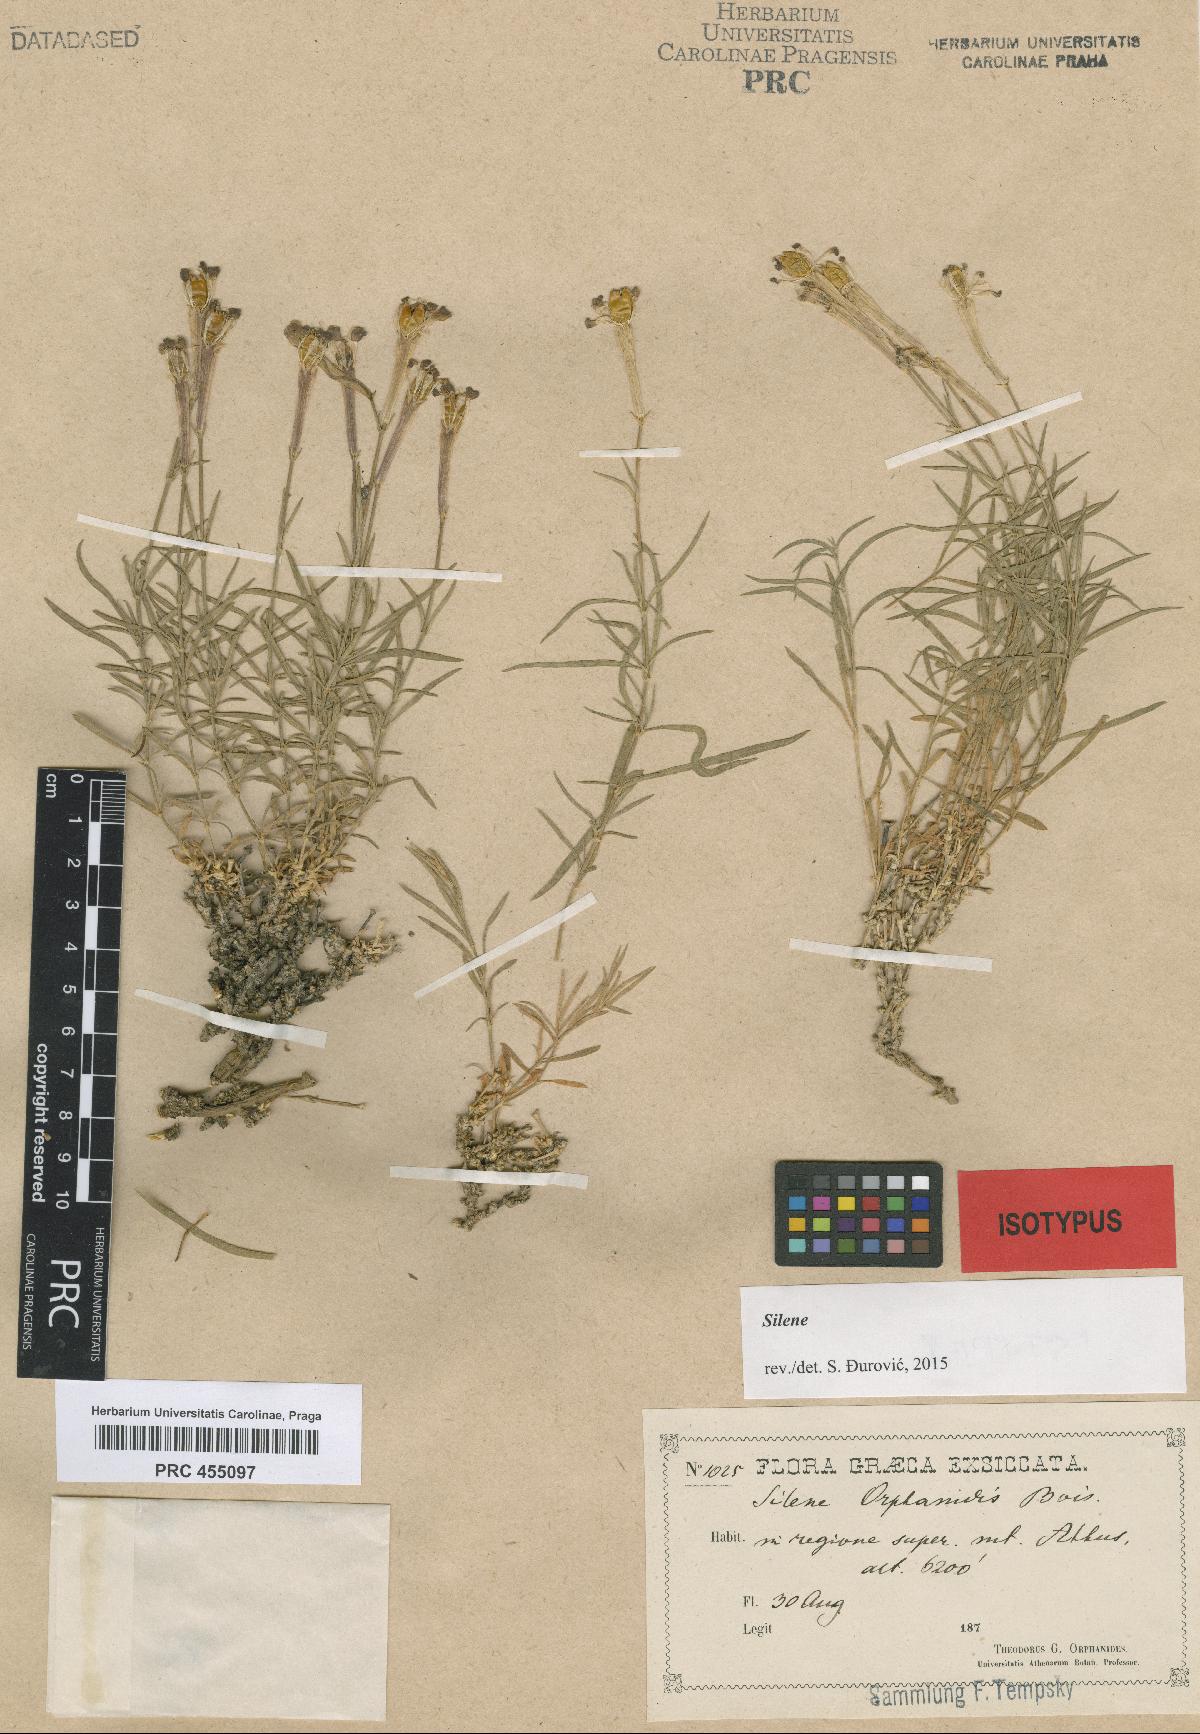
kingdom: Plantae
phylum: Tracheophyta
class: Magnoliopsida
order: Caryophyllales
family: Caryophyllaceae
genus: Silene
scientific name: Silene orphanidis
